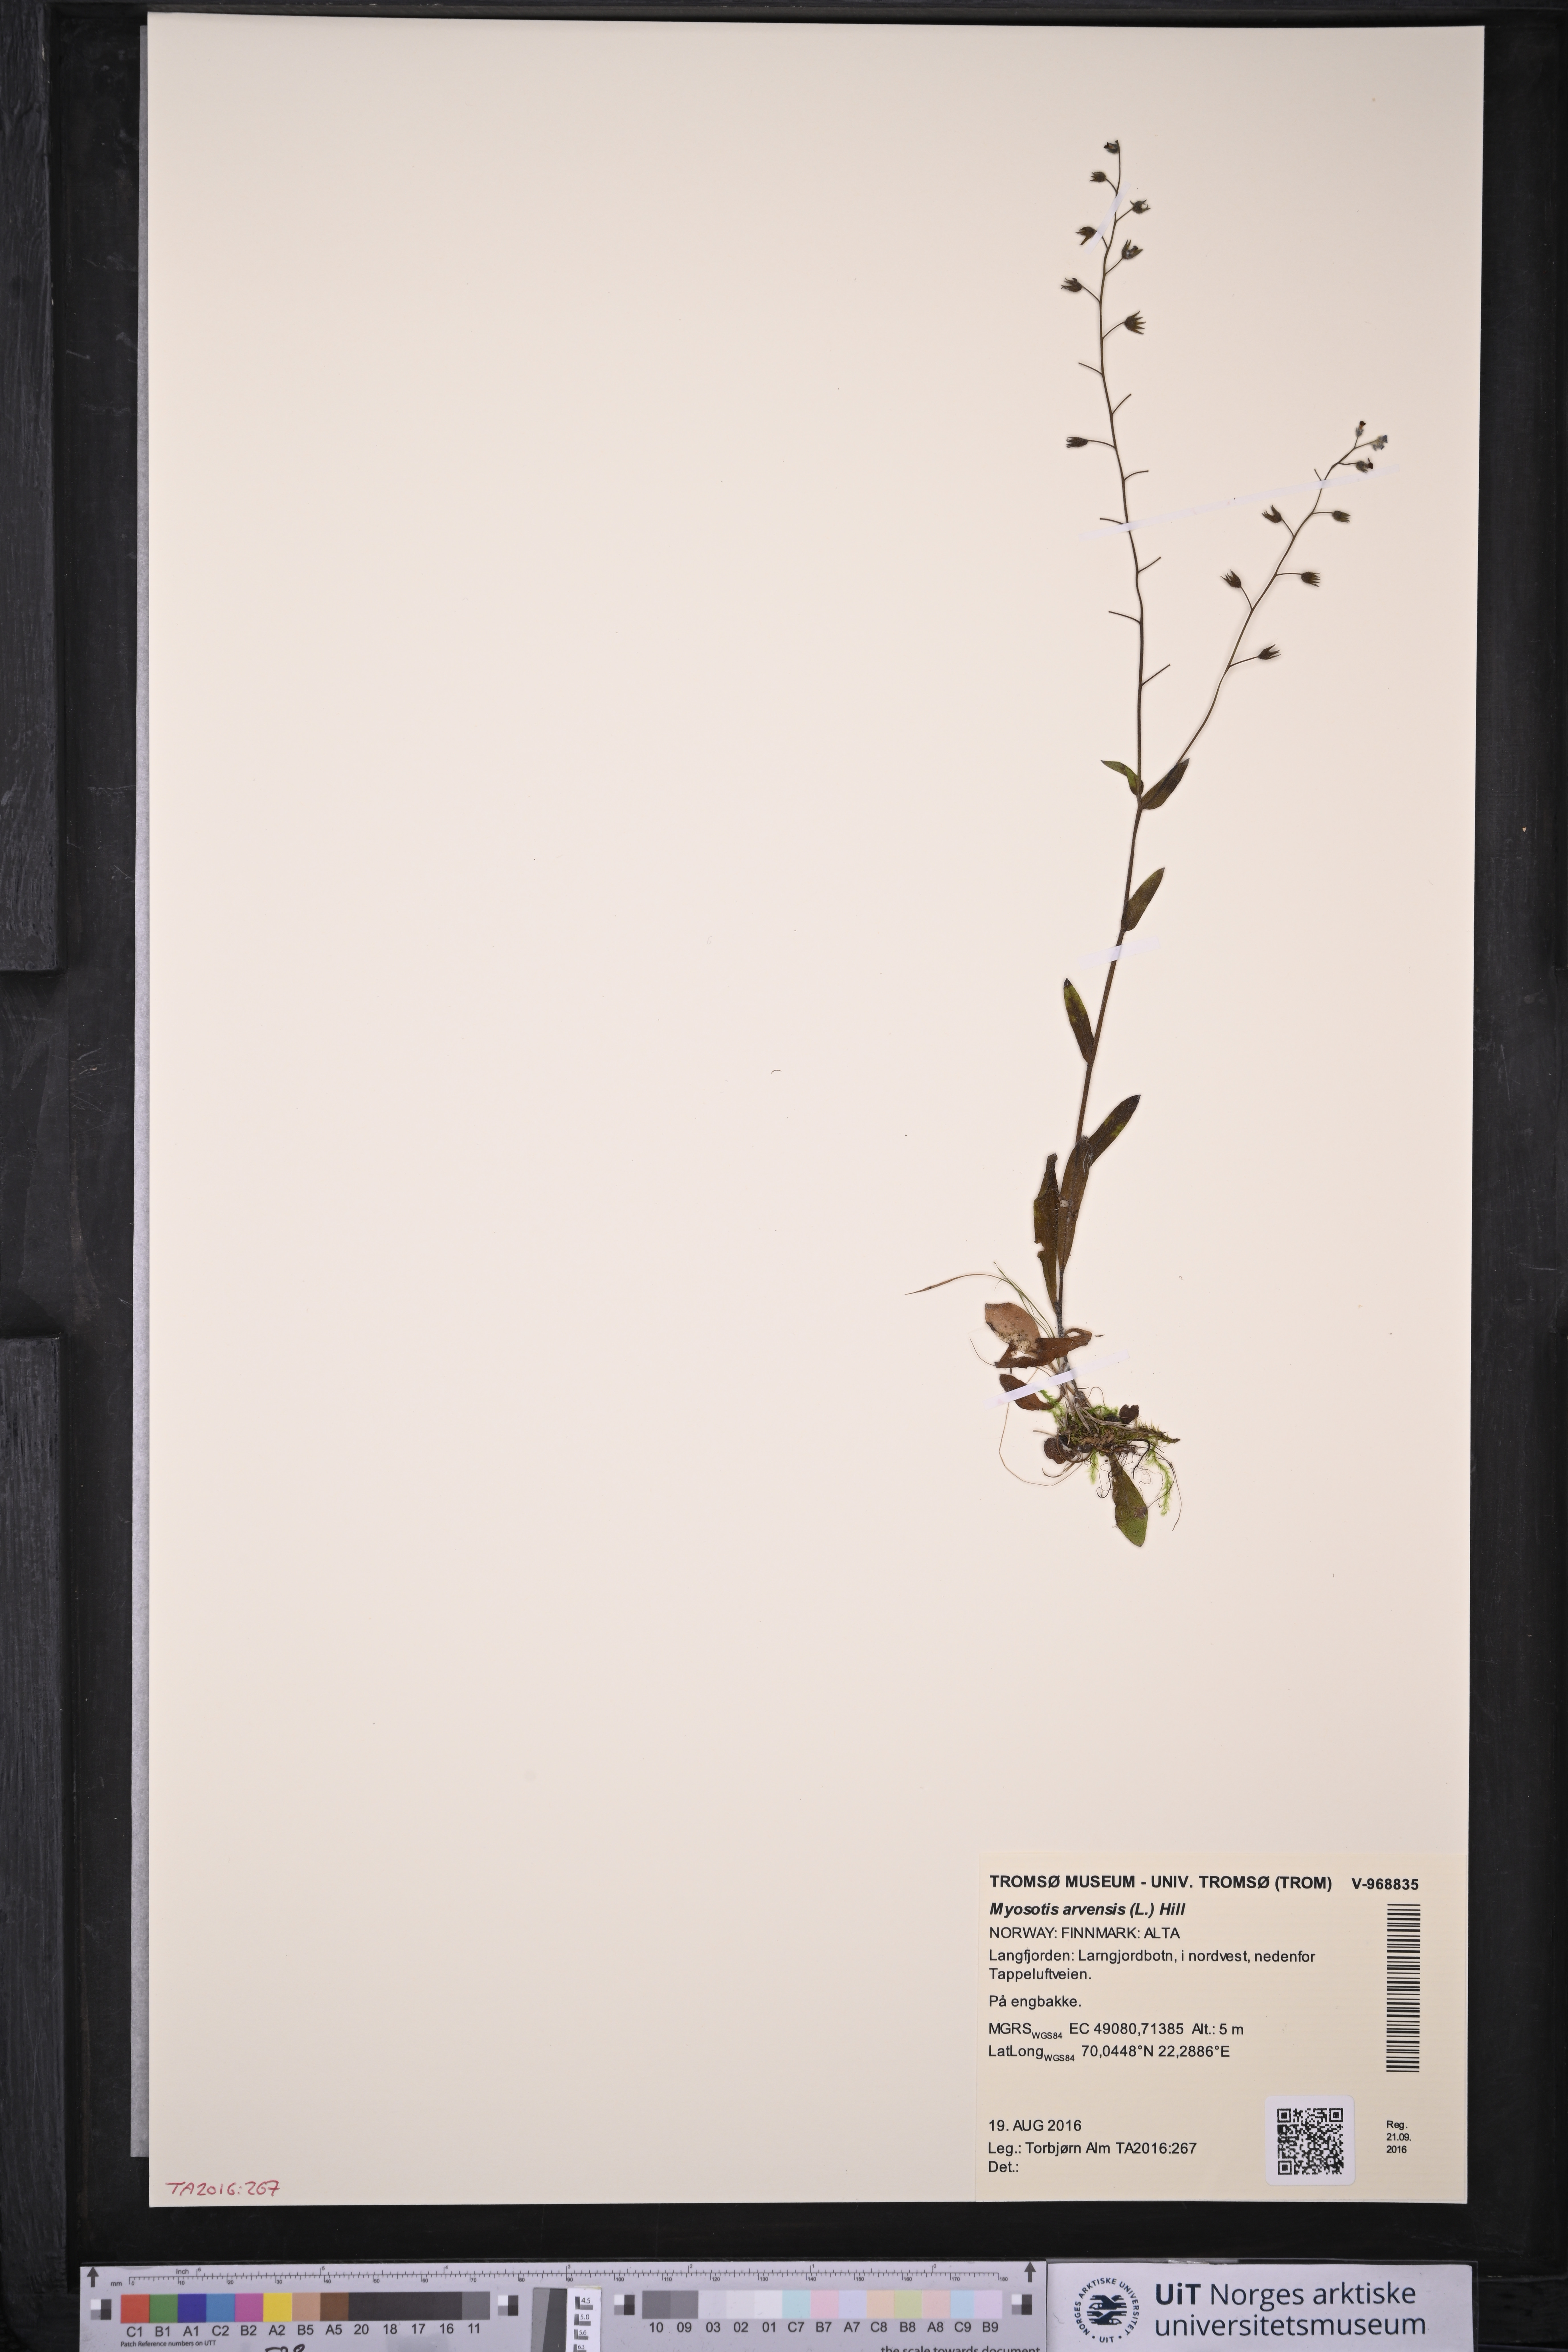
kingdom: Plantae
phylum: Tracheophyta
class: Magnoliopsida
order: Boraginales
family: Boraginaceae
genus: Myosotis
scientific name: Myosotis arvensis
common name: Field forget-me-not
